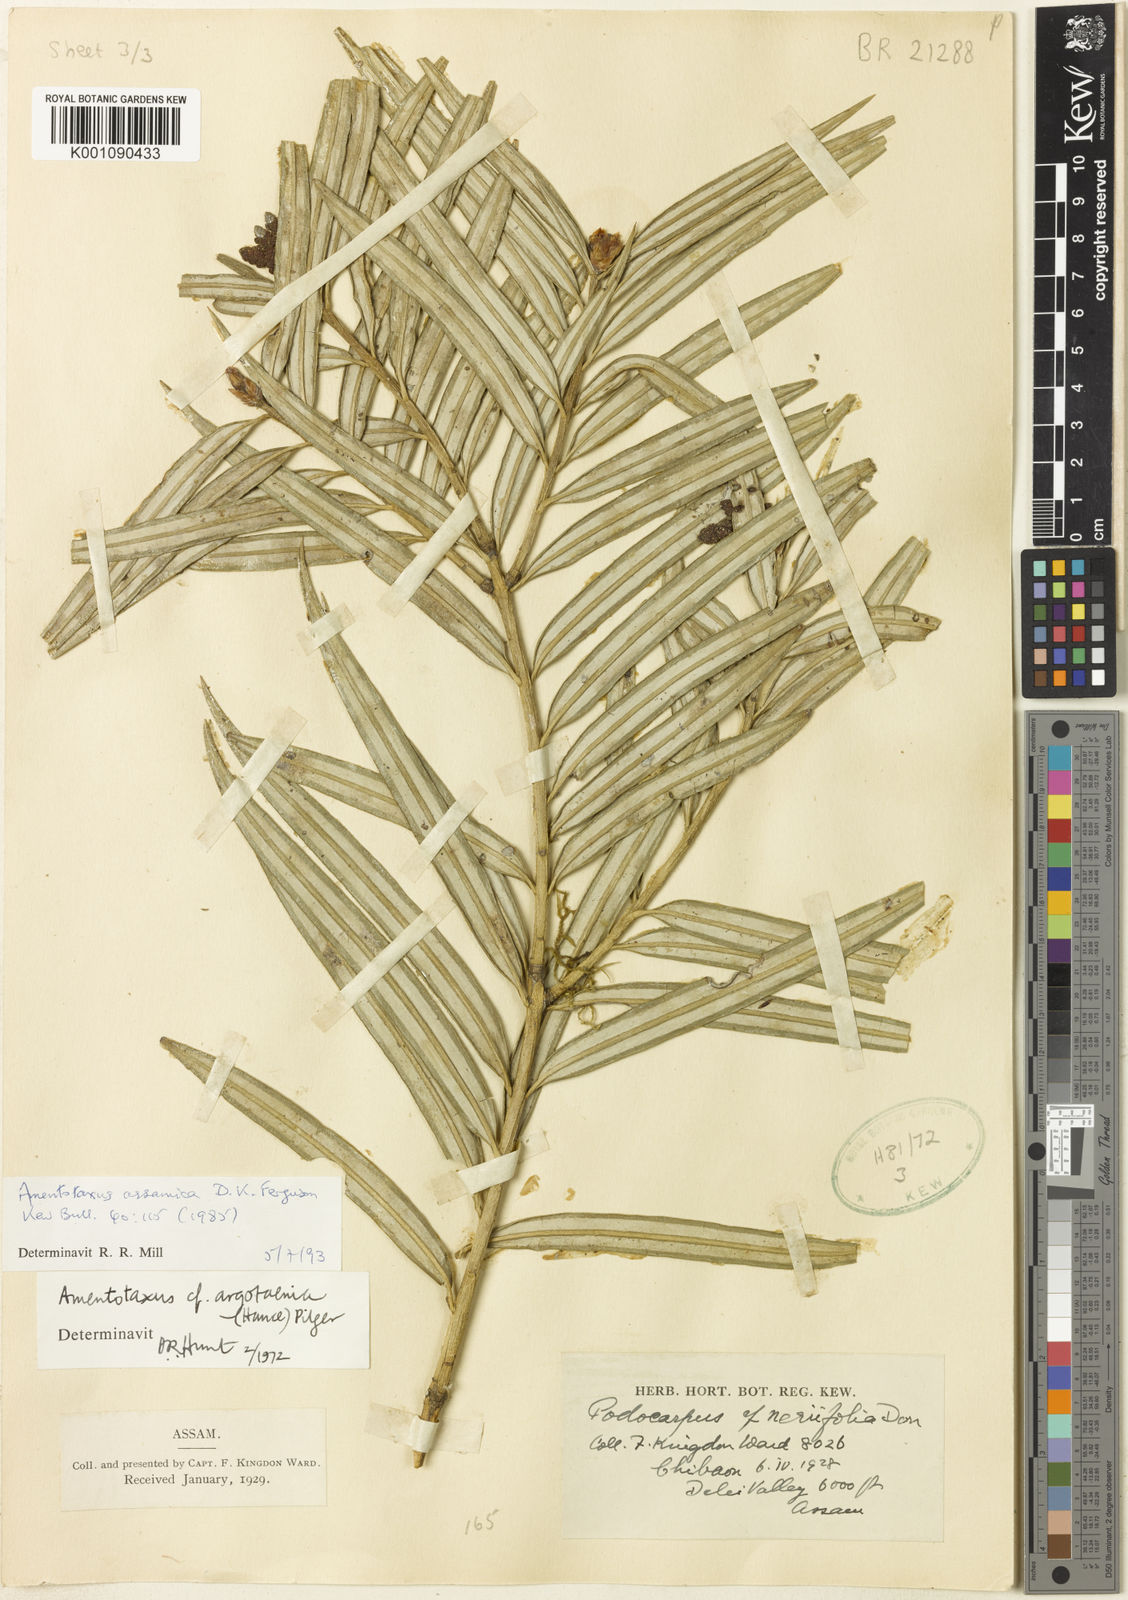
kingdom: Plantae
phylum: Tracheophyta
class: Pinopsida
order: Pinales
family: Taxaceae
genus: Amentotaxus
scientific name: Amentotaxus assamica
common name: Assam catkin yew
